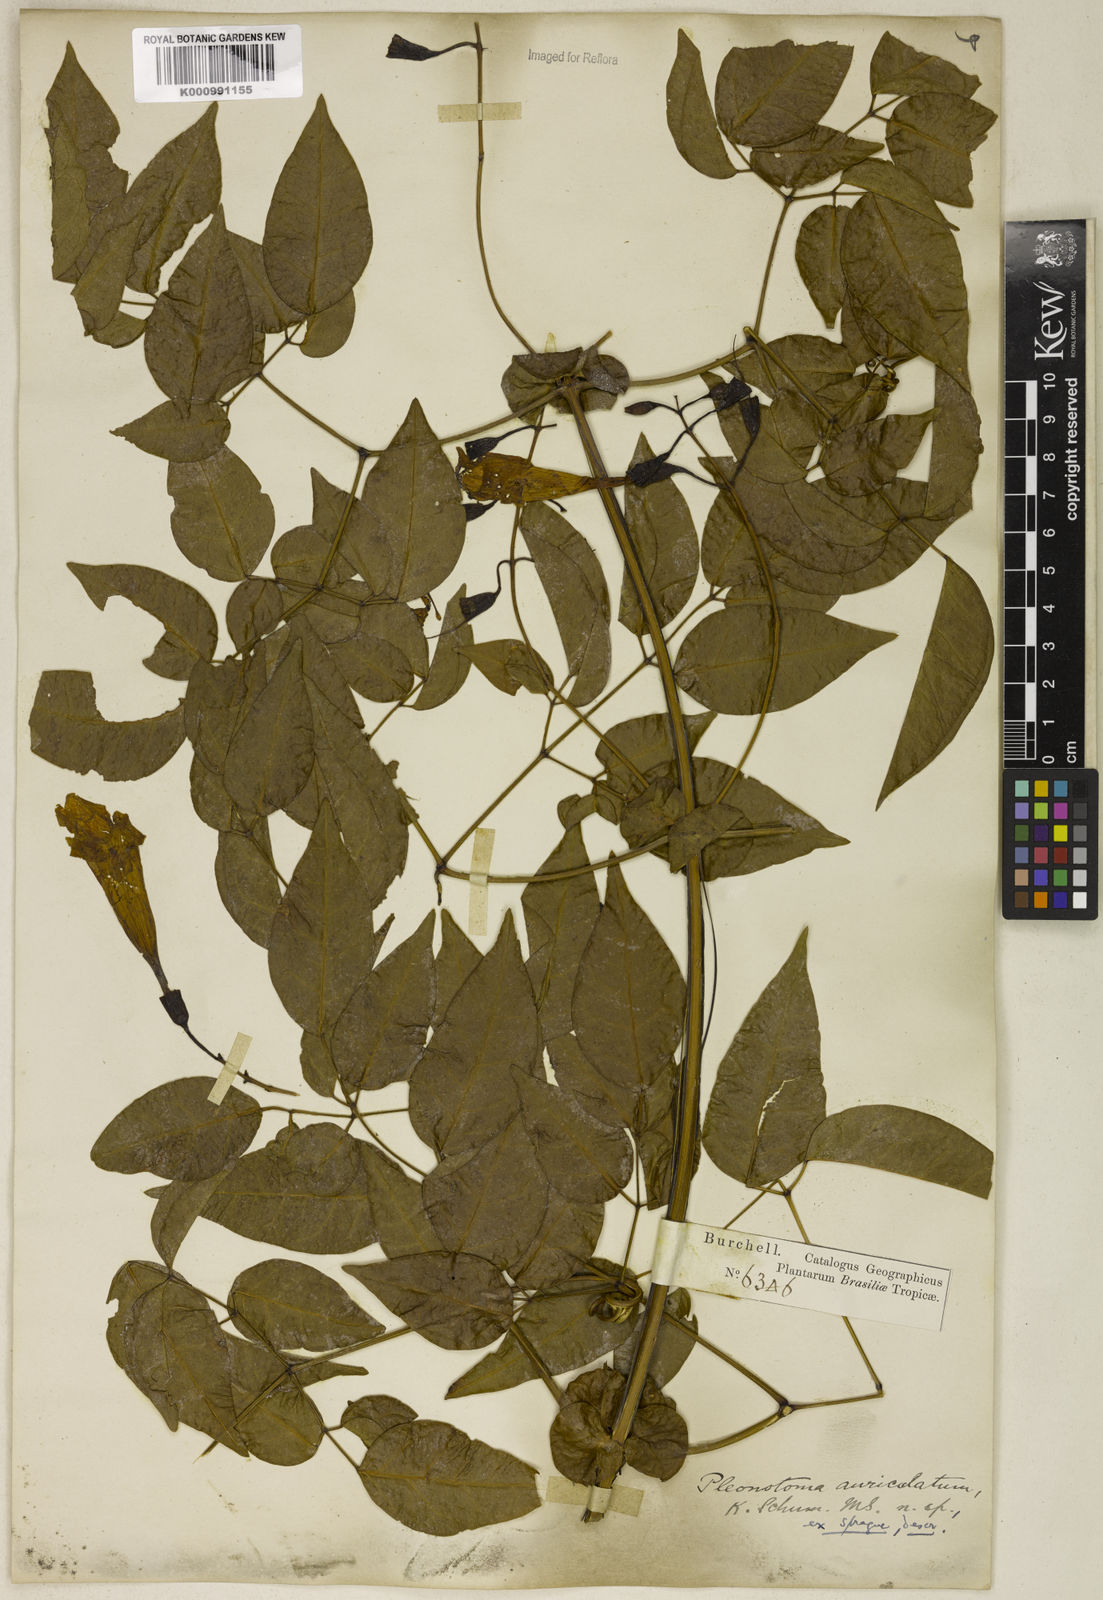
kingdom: Plantae
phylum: Tracheophyta
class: Magnoliopsida
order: Lamiales
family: Bignoniaceae
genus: Pleonotoma
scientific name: Pleonotoma jasminifolia
